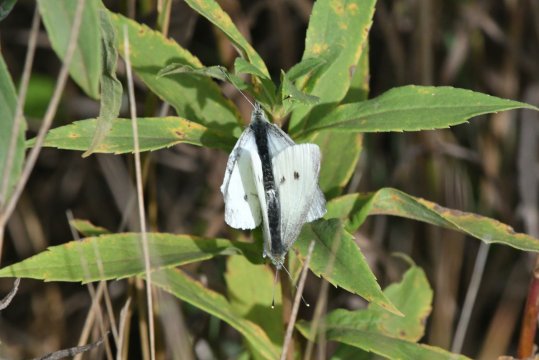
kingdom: Animalia
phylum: Arthropoda
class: Insecta
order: Lepidoptera
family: Pieridae
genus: Pieris
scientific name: Pieris rapae
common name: Cabbage White
